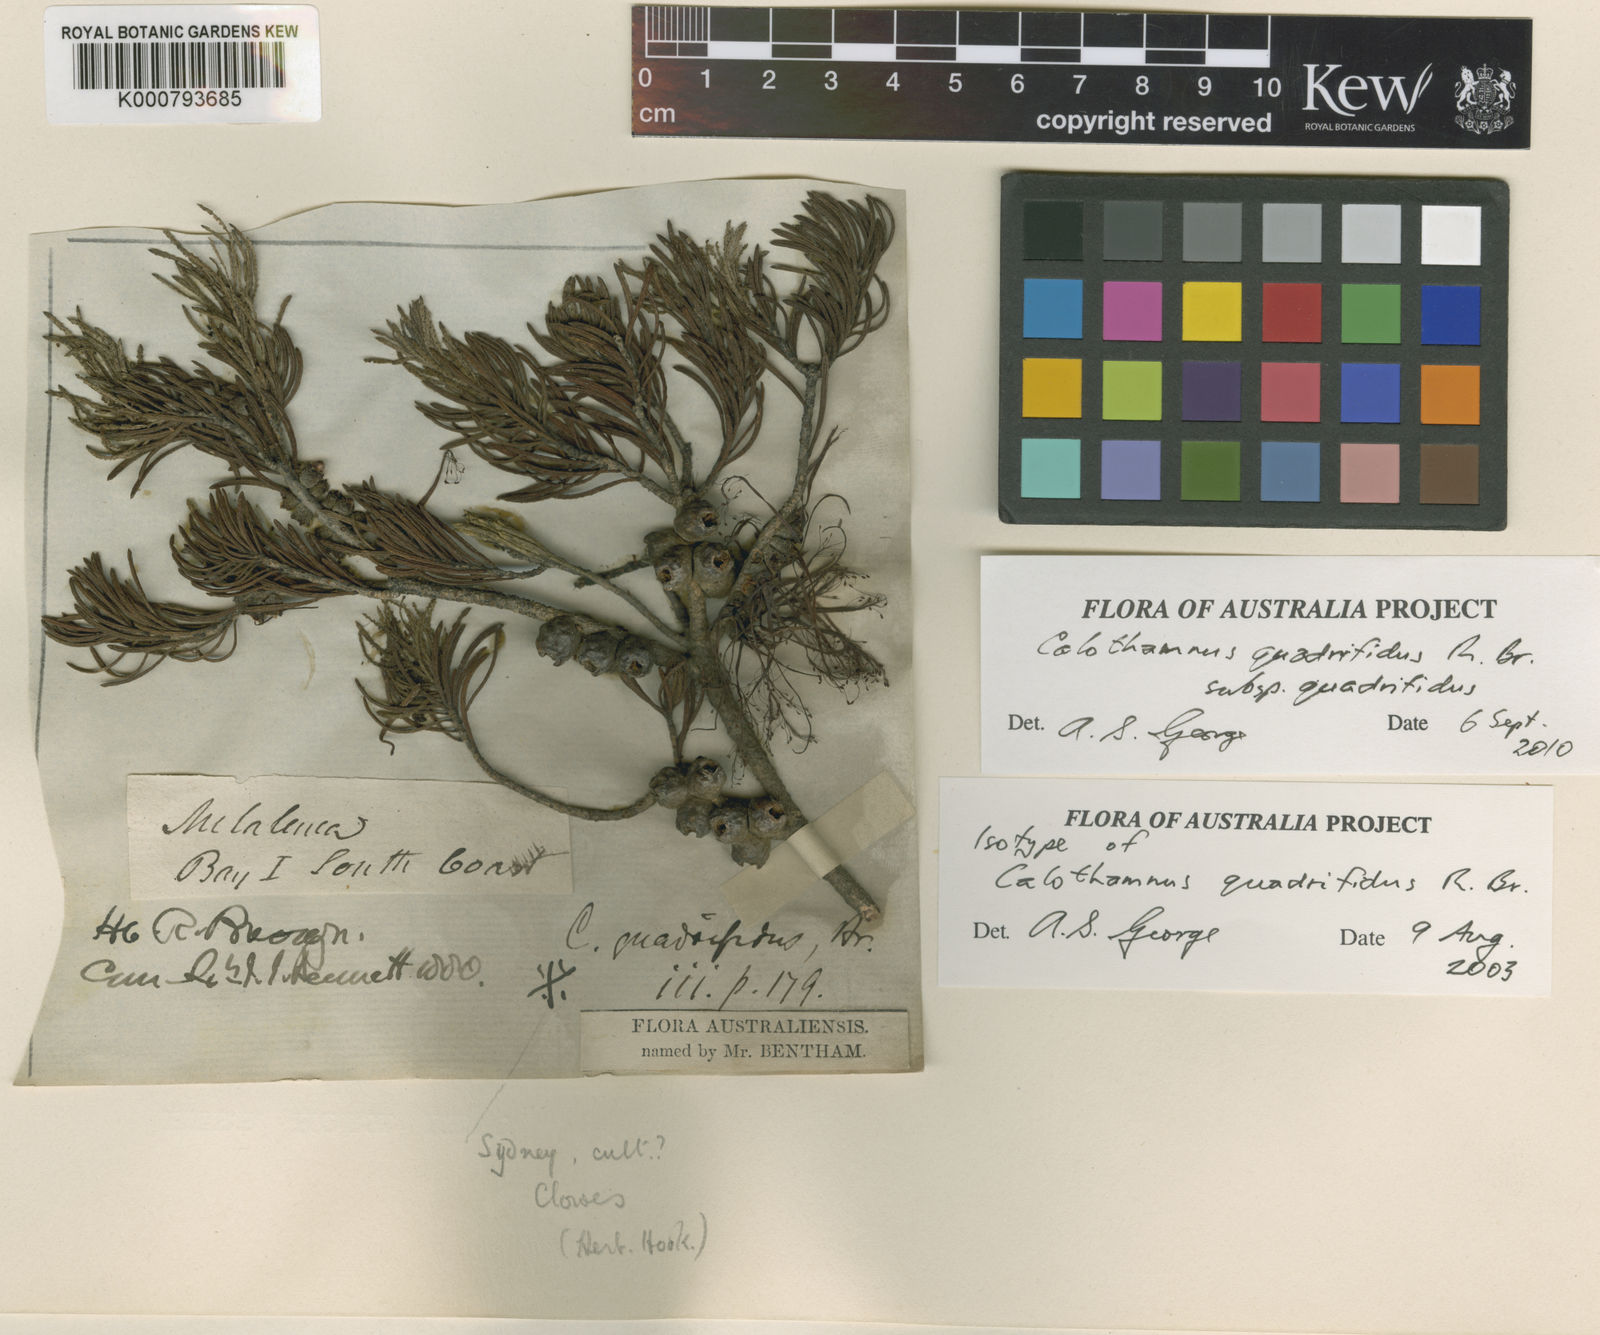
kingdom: Plantae
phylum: Tracheophyta
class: Magnoliopsida
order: Myrtales
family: Myrtaceae
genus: Melaleuca
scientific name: Melaleuca
